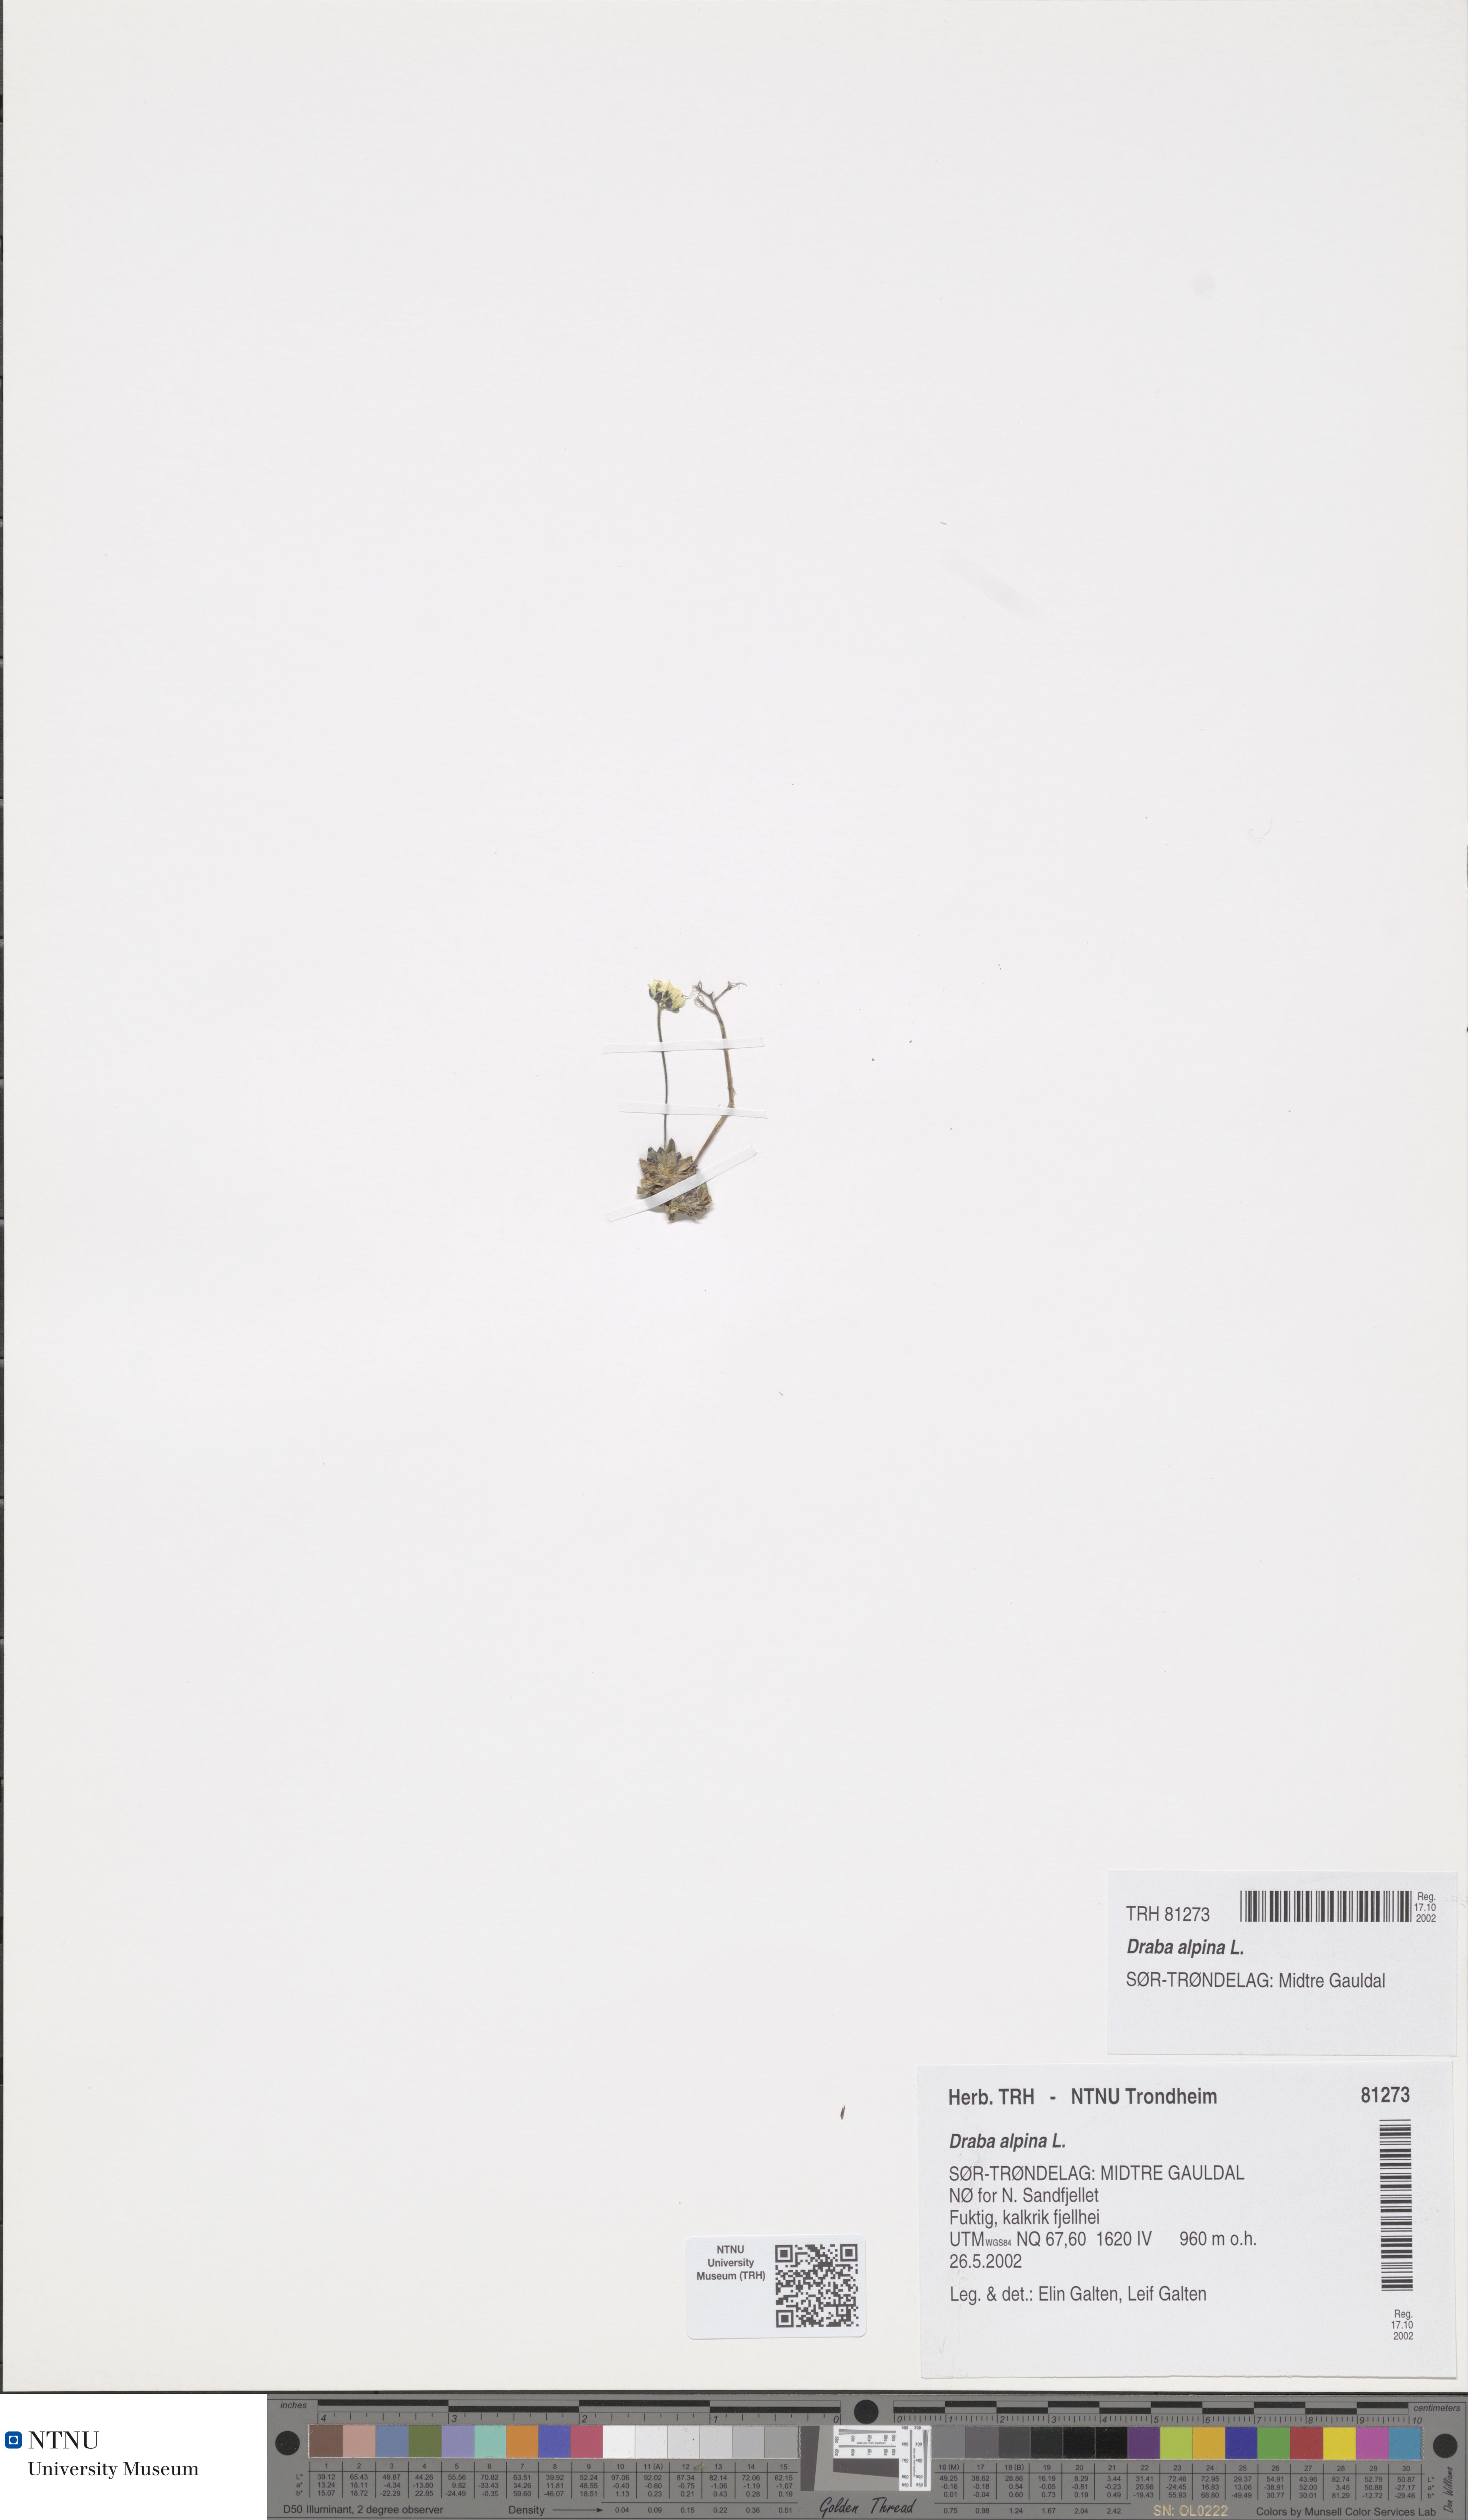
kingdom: Plantae
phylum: Tracheophyta
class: Magnoliopsida
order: Brassicales
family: Brassicaceae
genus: Draba
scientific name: Draba alpina
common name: Alpine draba
